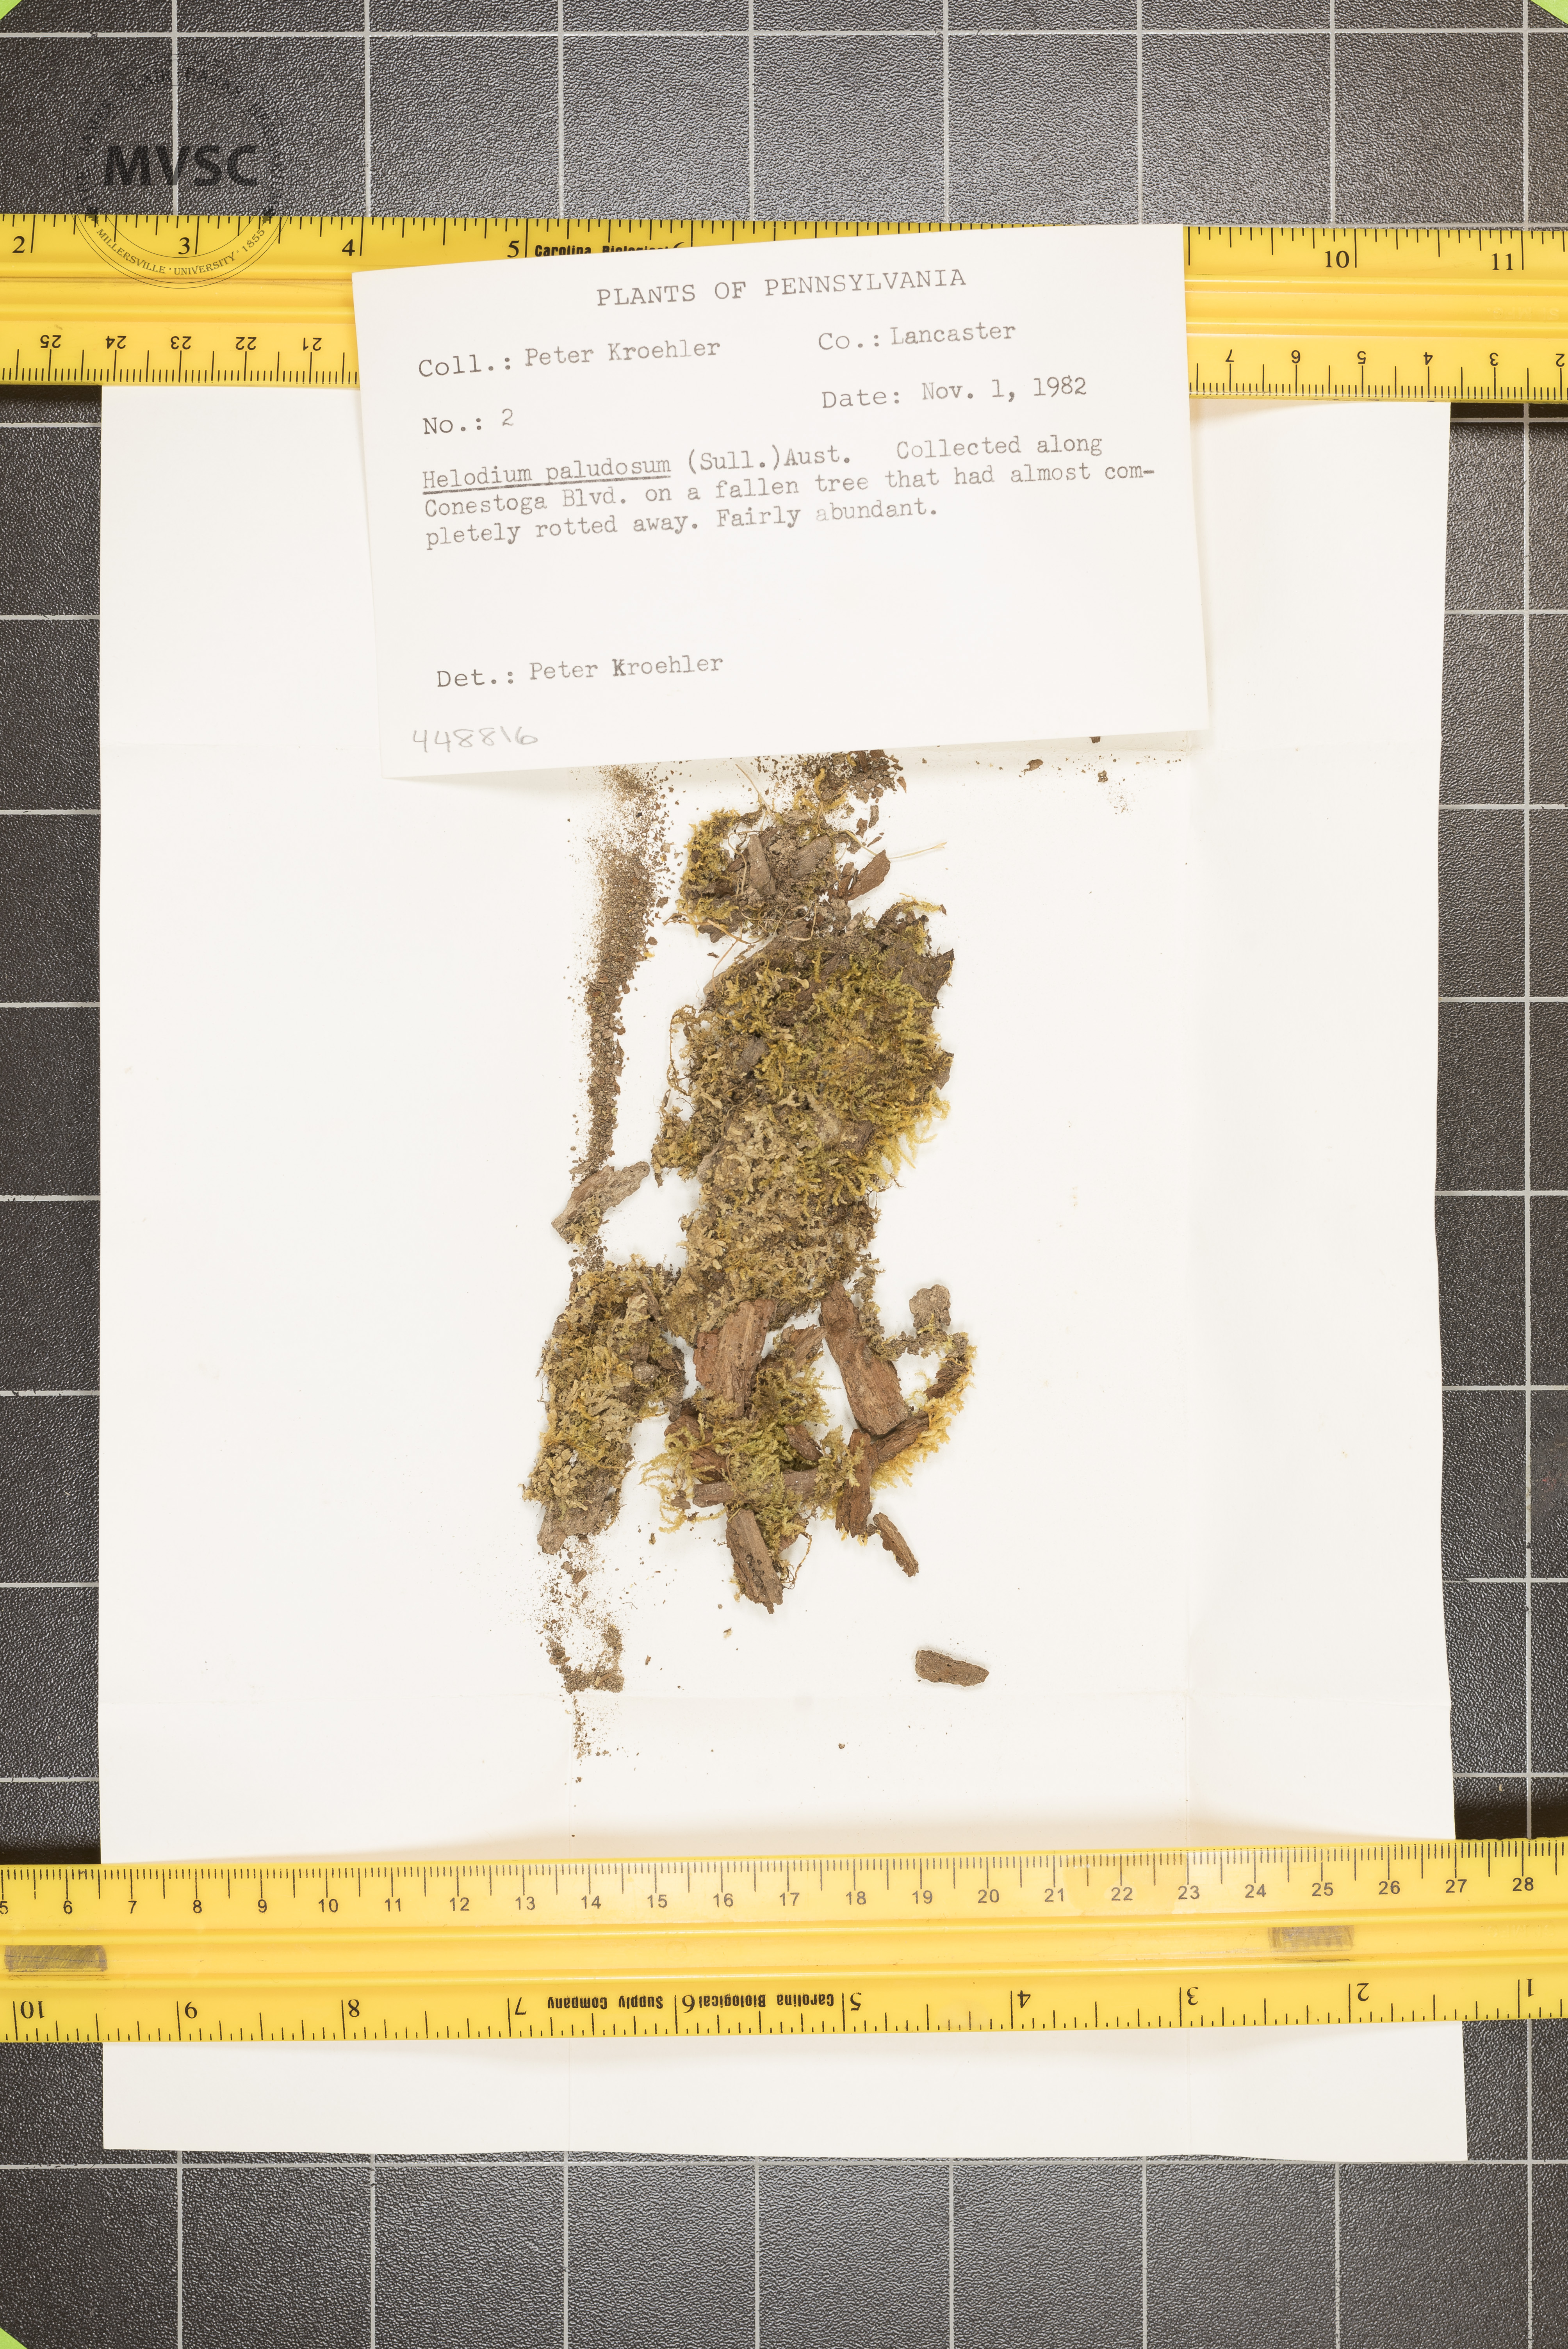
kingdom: Plantae
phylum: Bryophyta
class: Bryopsida
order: Hypnales
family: Helodiaceae
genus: Helodium
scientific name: Helodium paludosum
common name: Narrow-leaved wetland plume moss
